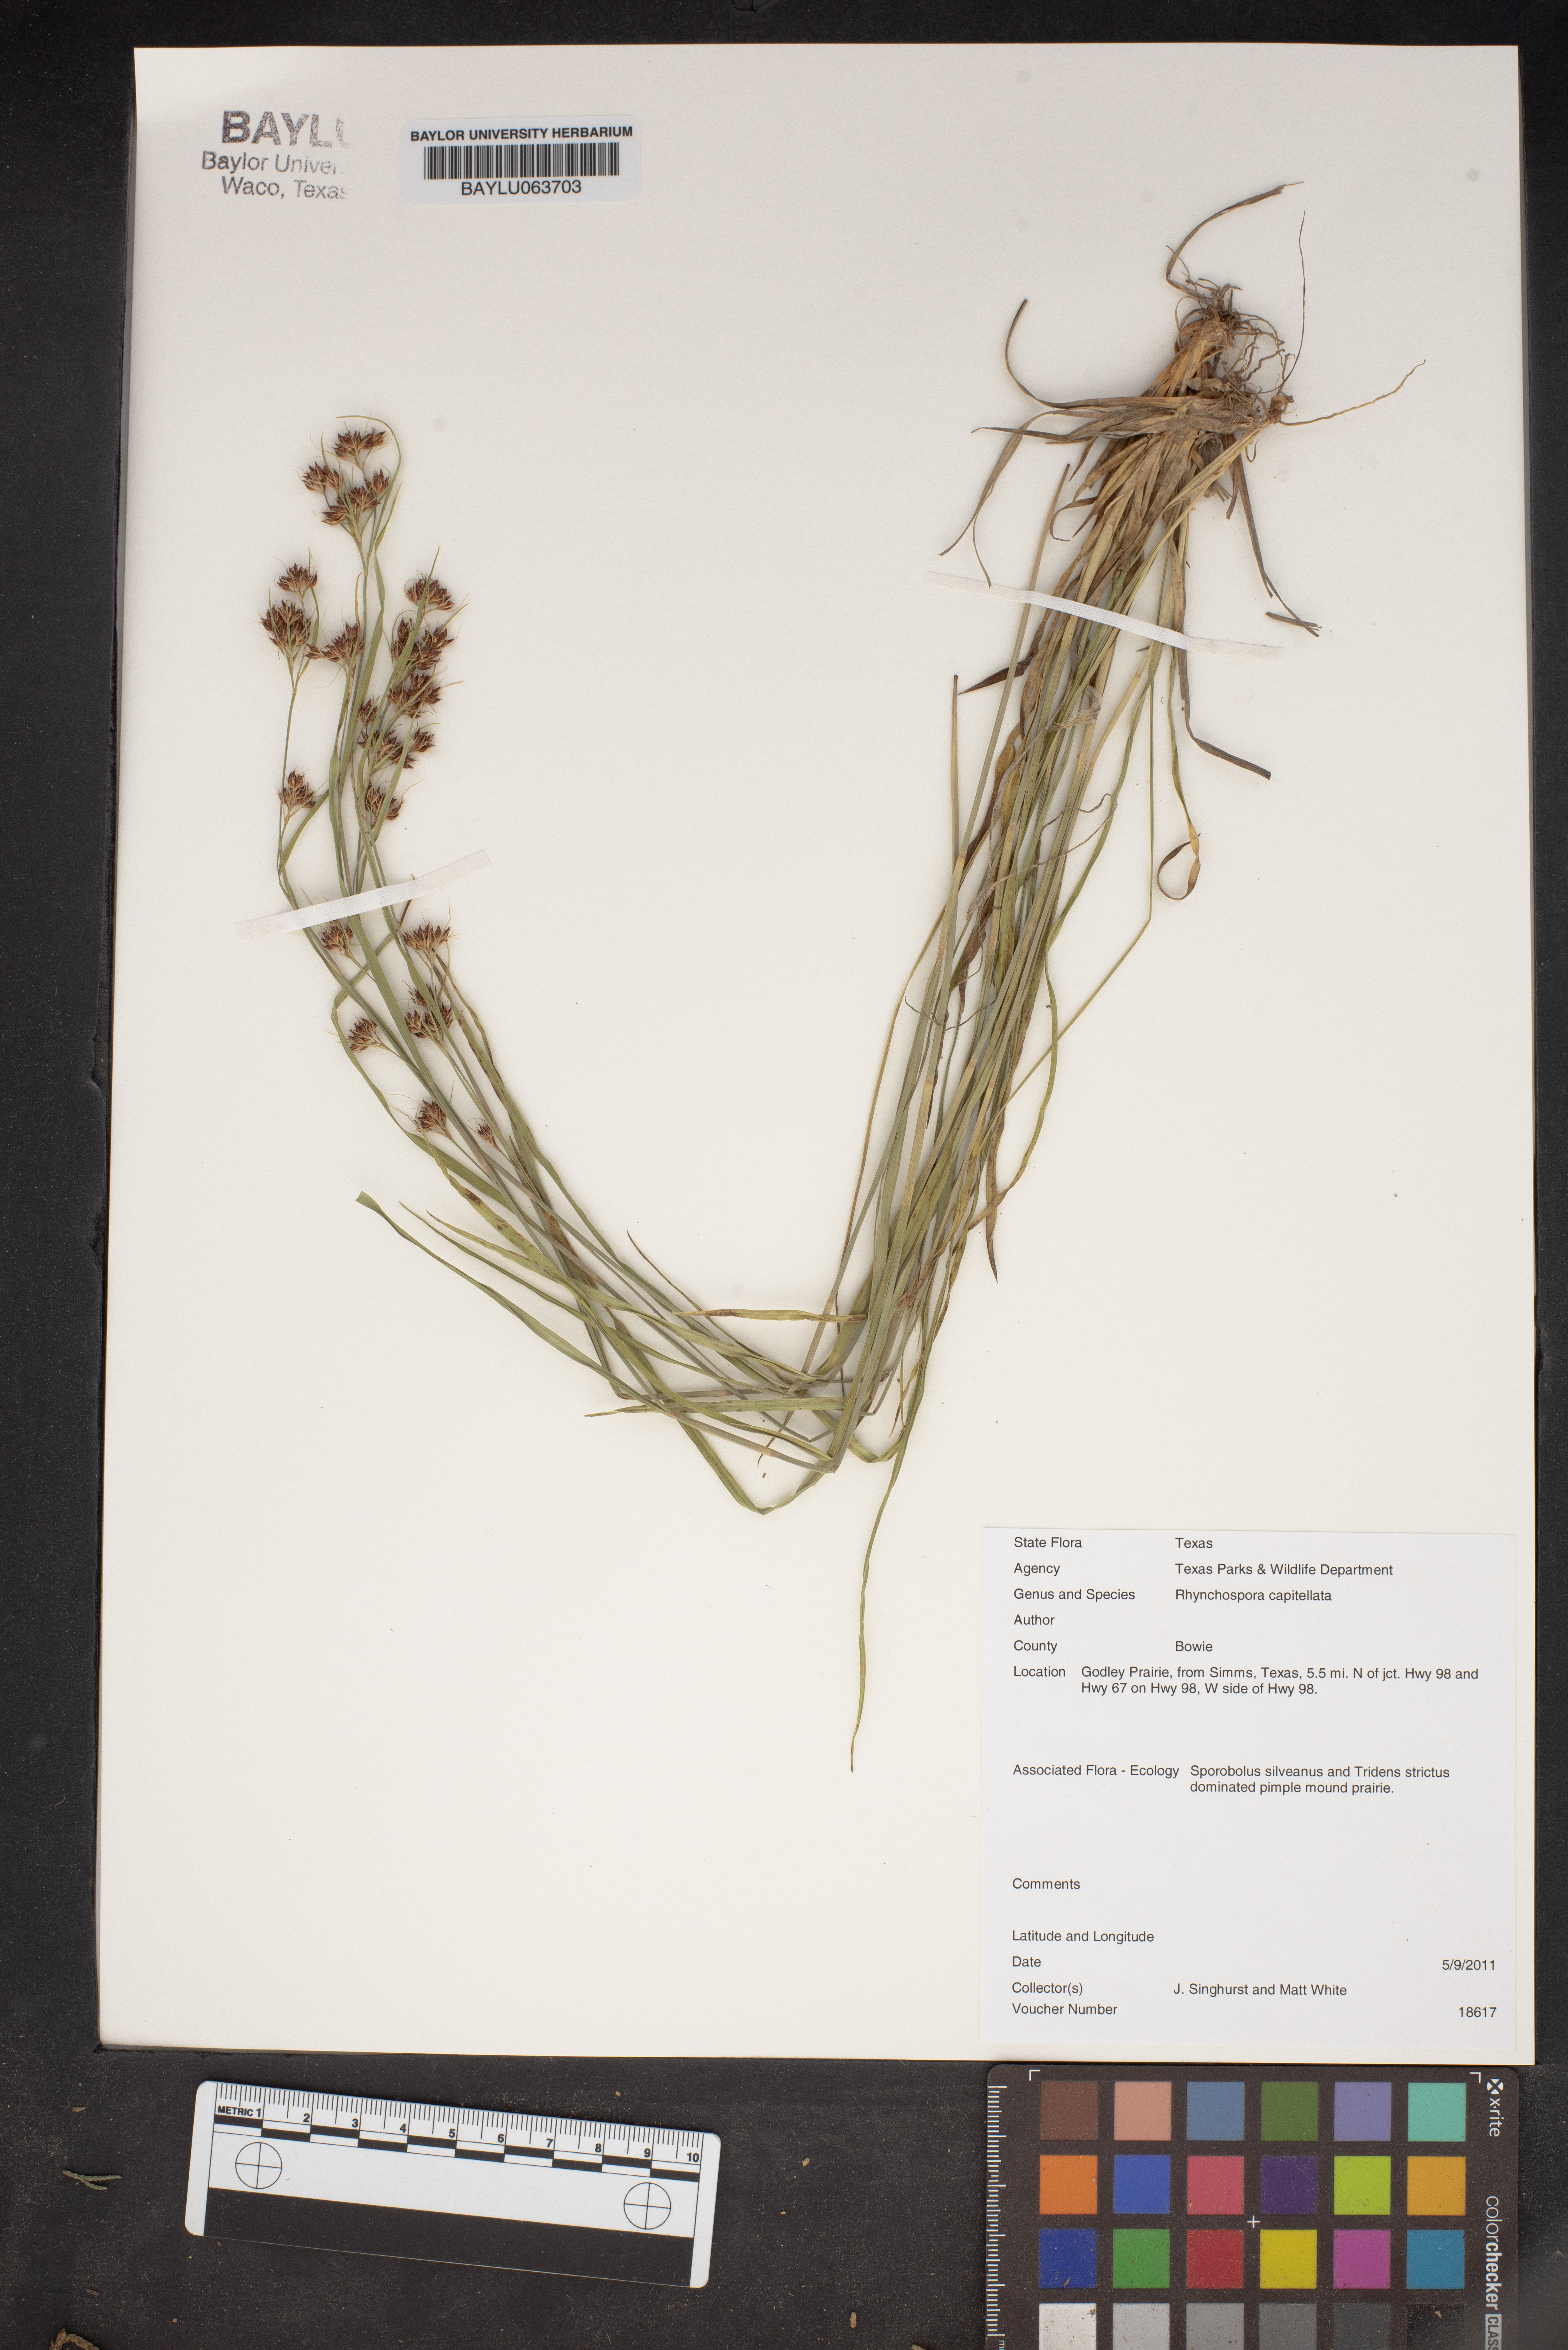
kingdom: Plantae
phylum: Tracheophyta
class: Liliopsida
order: Poales
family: Cyperaceae
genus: Rhynchospora
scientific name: Rhynchospora capitellata
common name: Brownish beaksedge
